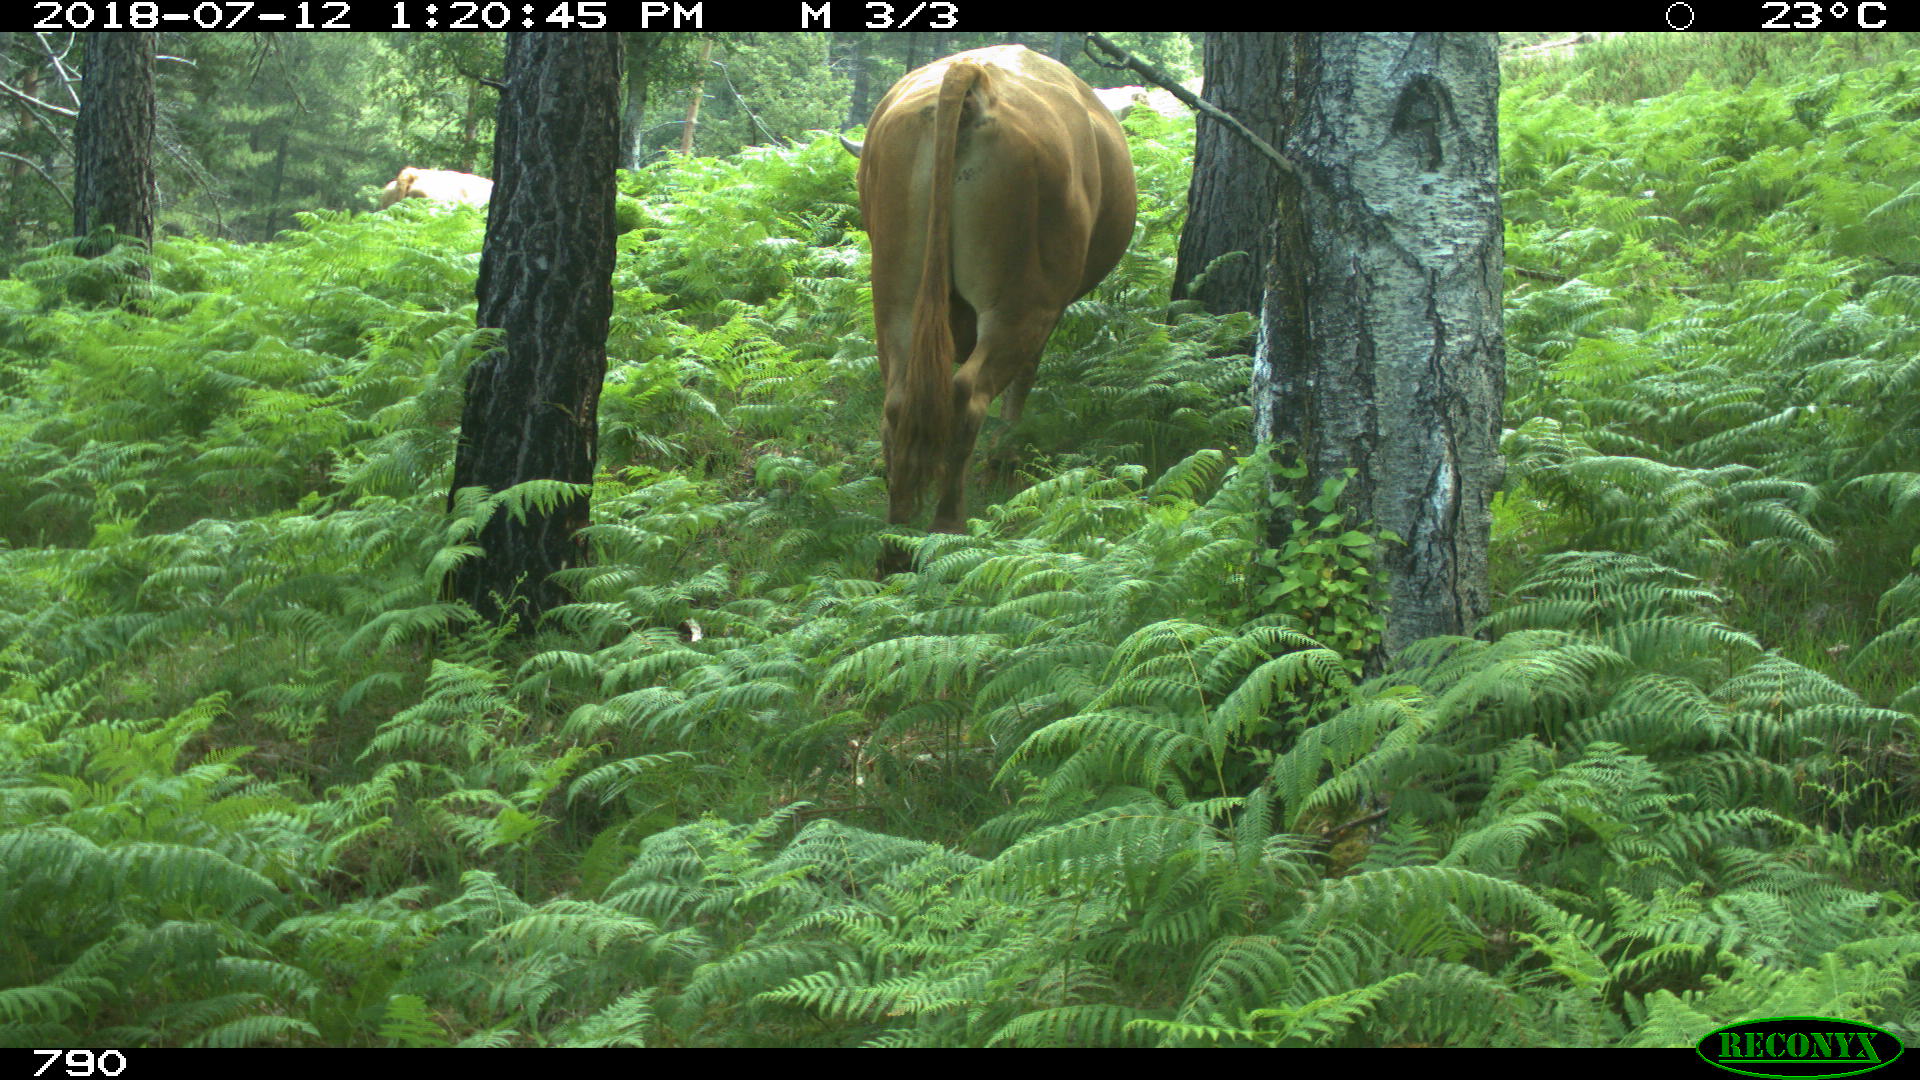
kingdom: Animalia
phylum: Chordata
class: Mammalia
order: Artiodactyla
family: Bovidae
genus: Bos
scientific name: Bos taurus
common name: Domesticated cattle
